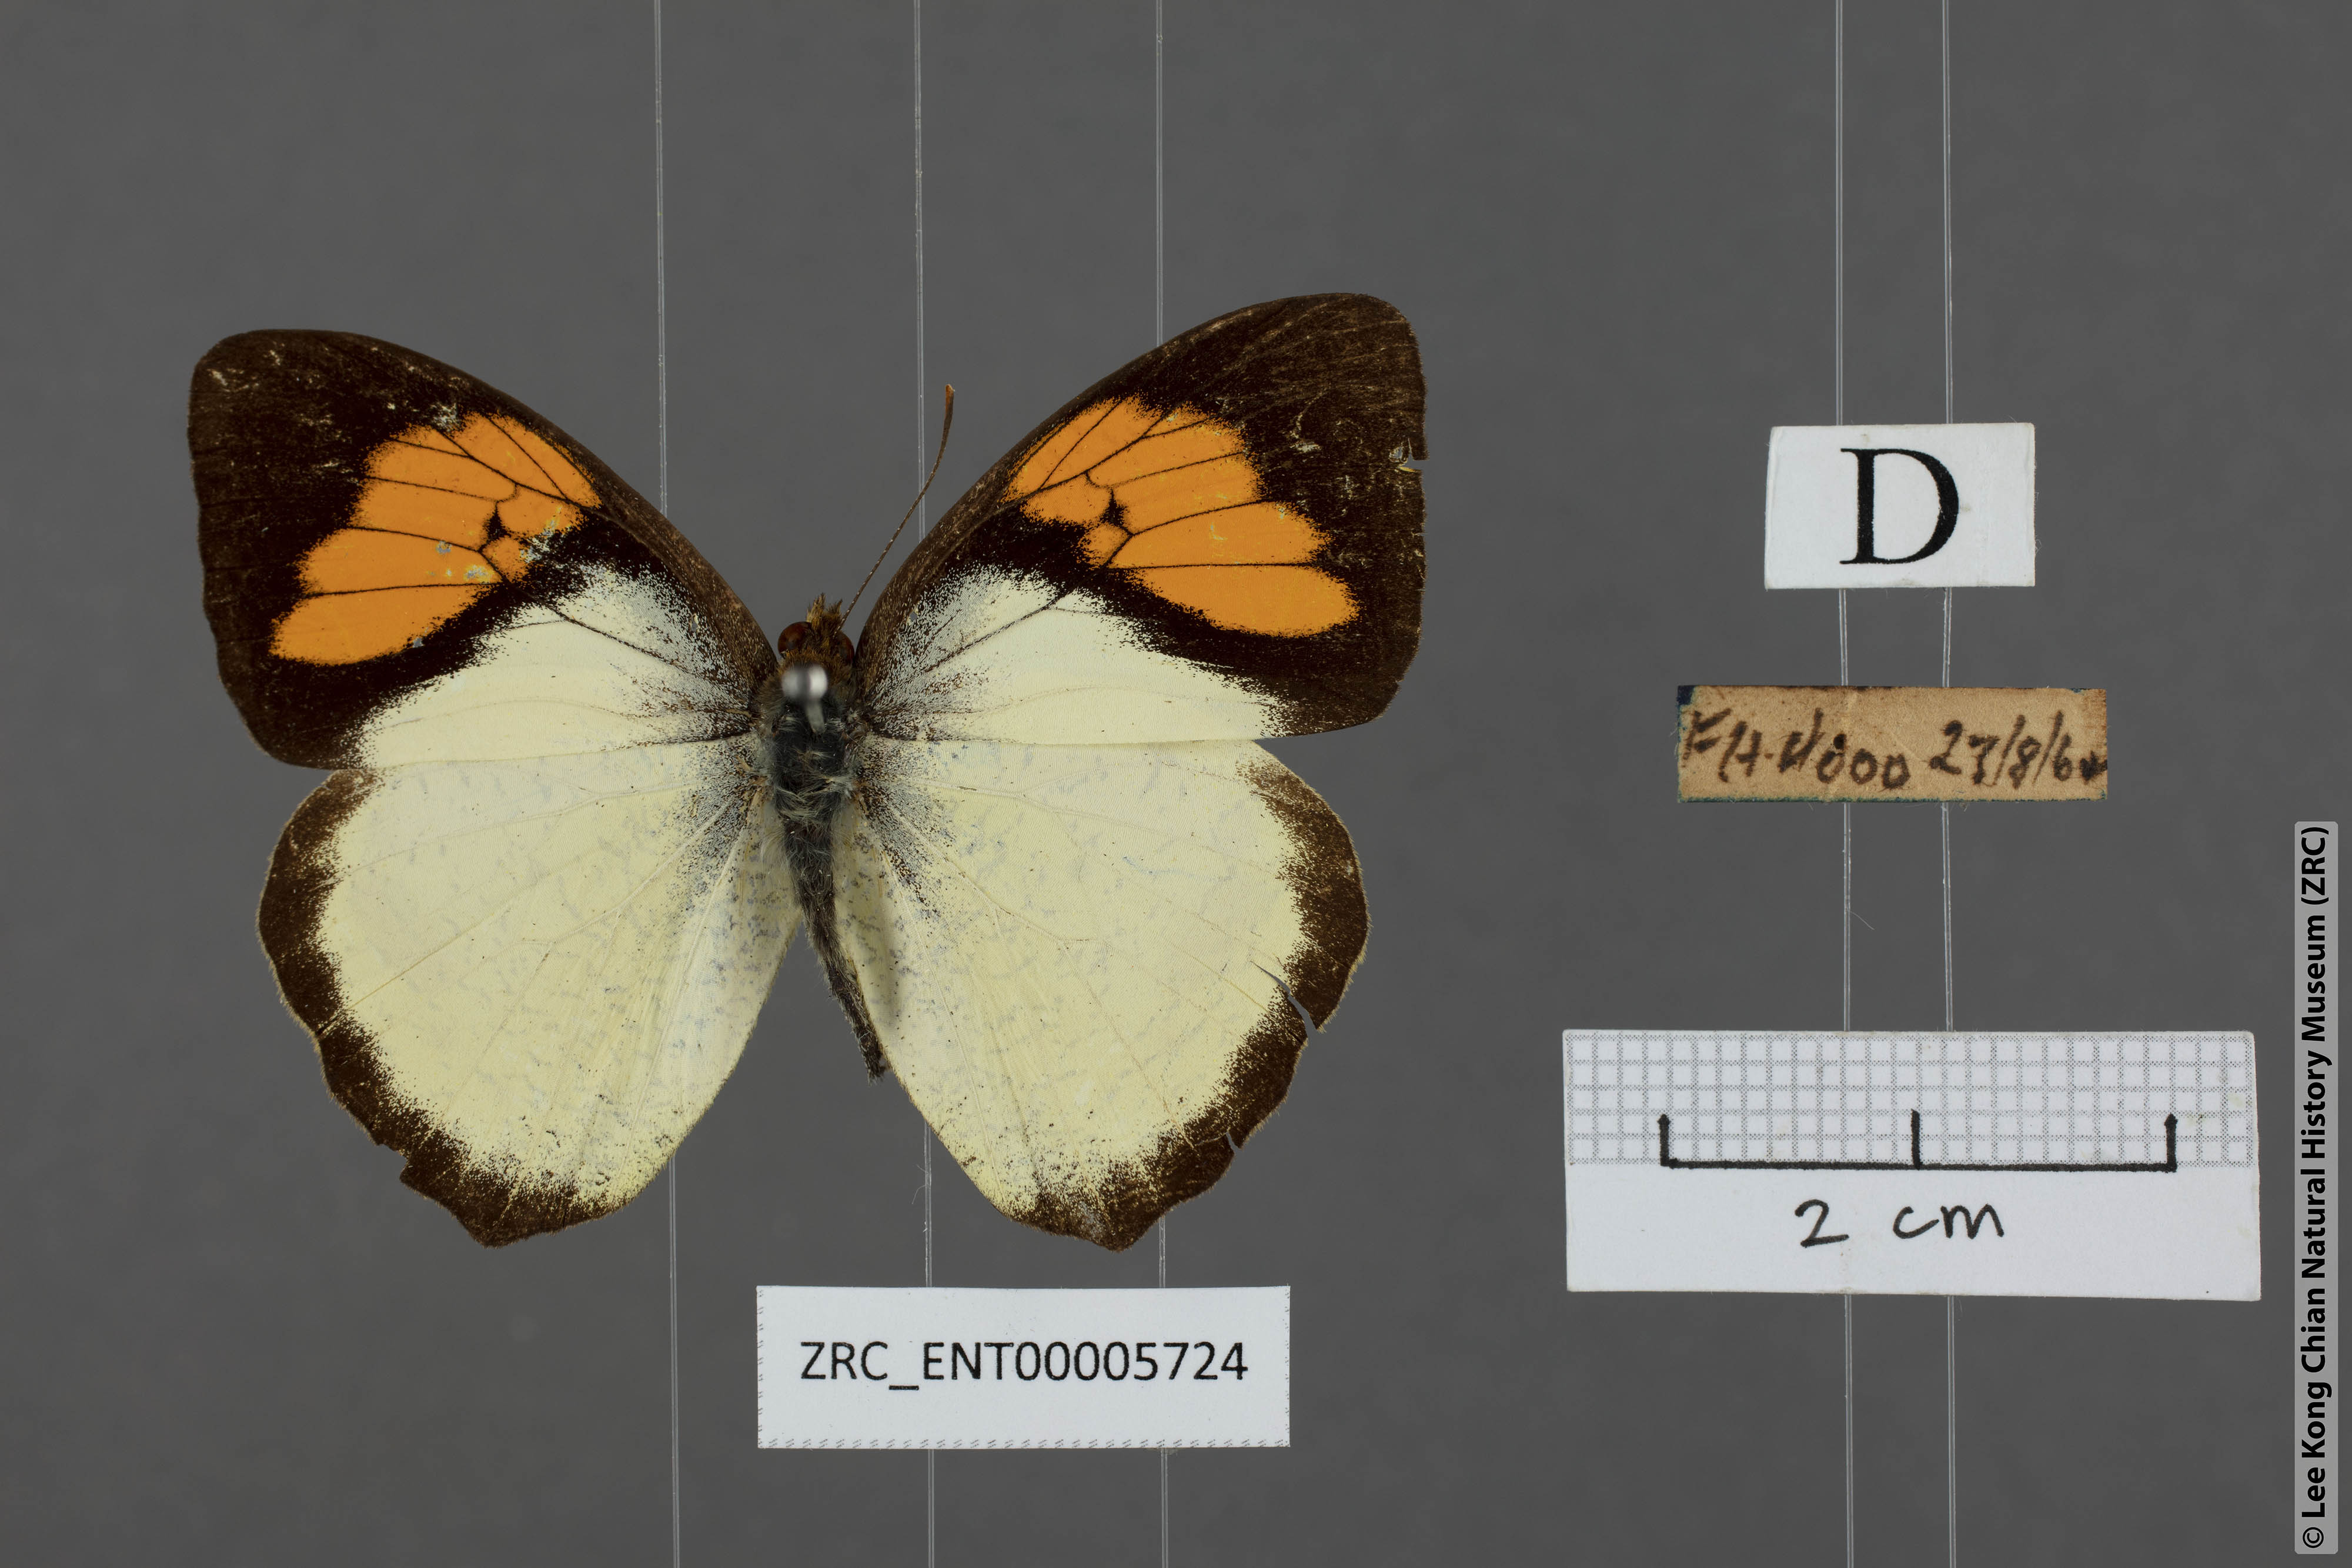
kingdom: Animalia
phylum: Arthropoda
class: Insecta
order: Lepidoptera
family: Pieridae
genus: Ixias
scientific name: Ixias pyrene
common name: Yellow orange tip
